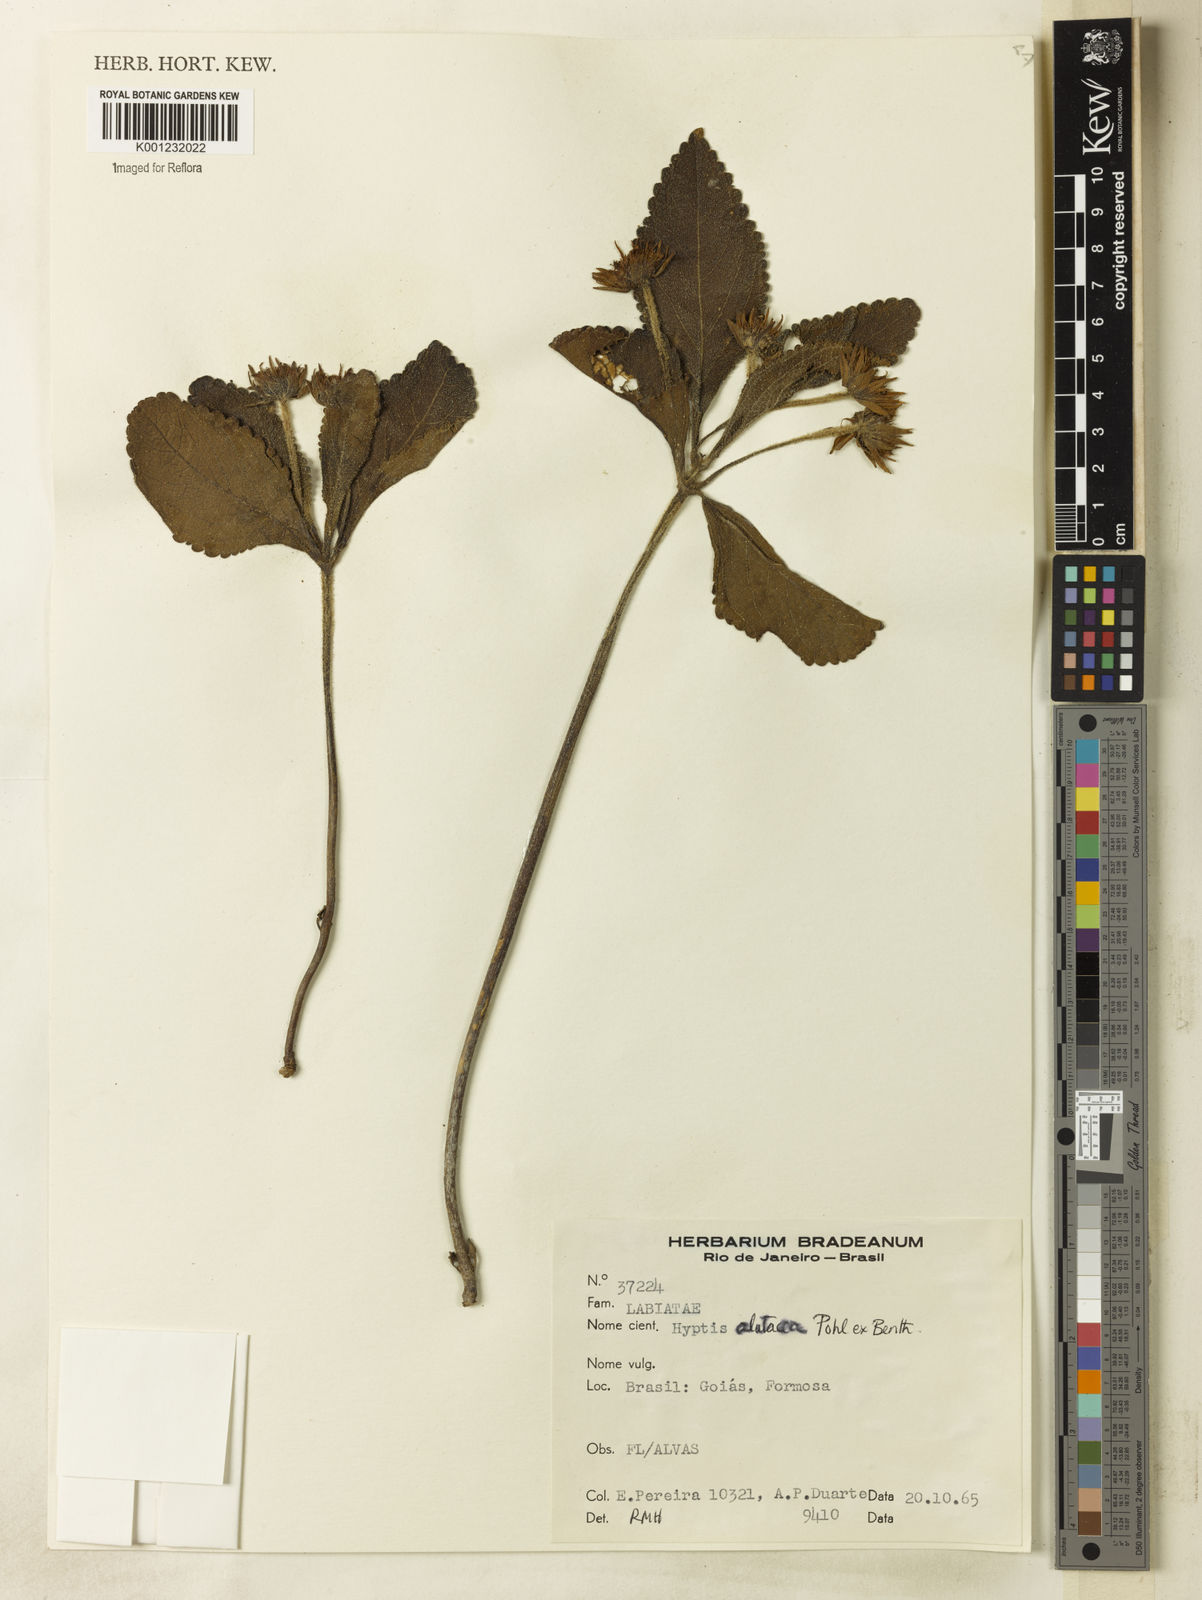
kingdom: Plantae
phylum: Tracheophyta
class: Magnoliopsida
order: Lamiales
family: Lamiaceae
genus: Hyptis
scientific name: Hyptis alutacea
